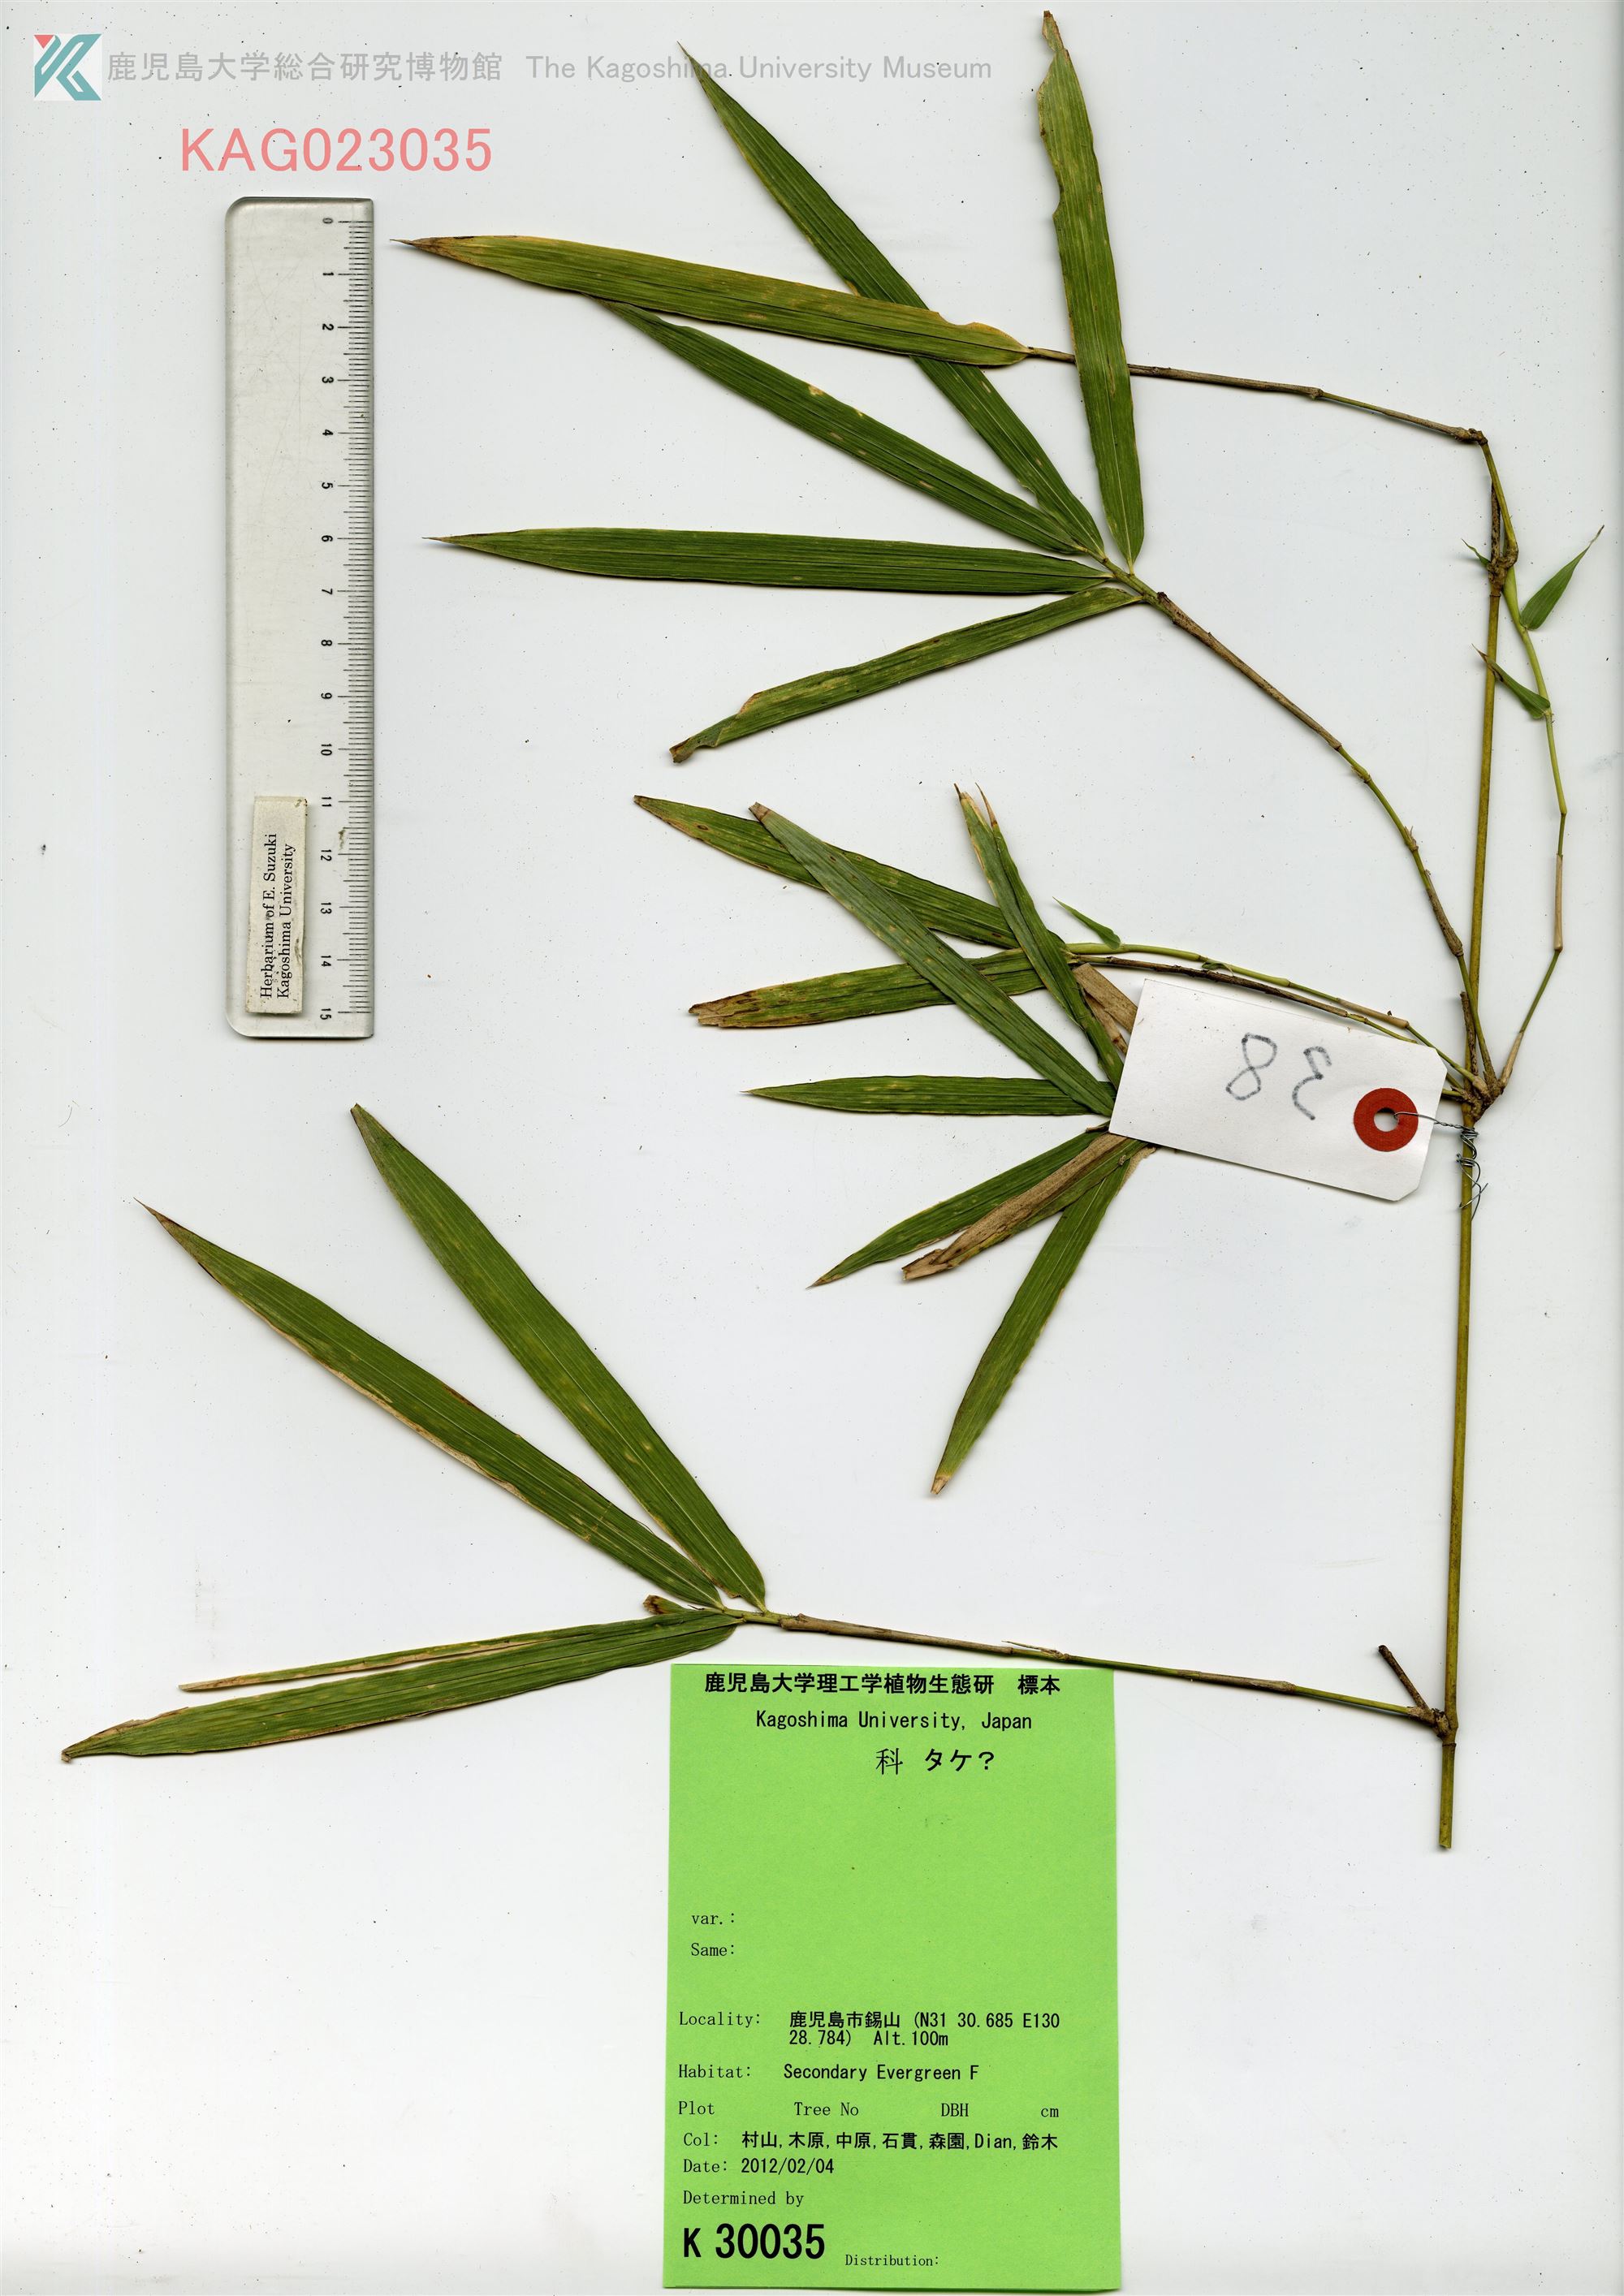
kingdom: Plantae
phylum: Tracheophyta
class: Liliopsida
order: Poales
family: Poaceae
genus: Phyllostachys
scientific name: Phyllostachys
